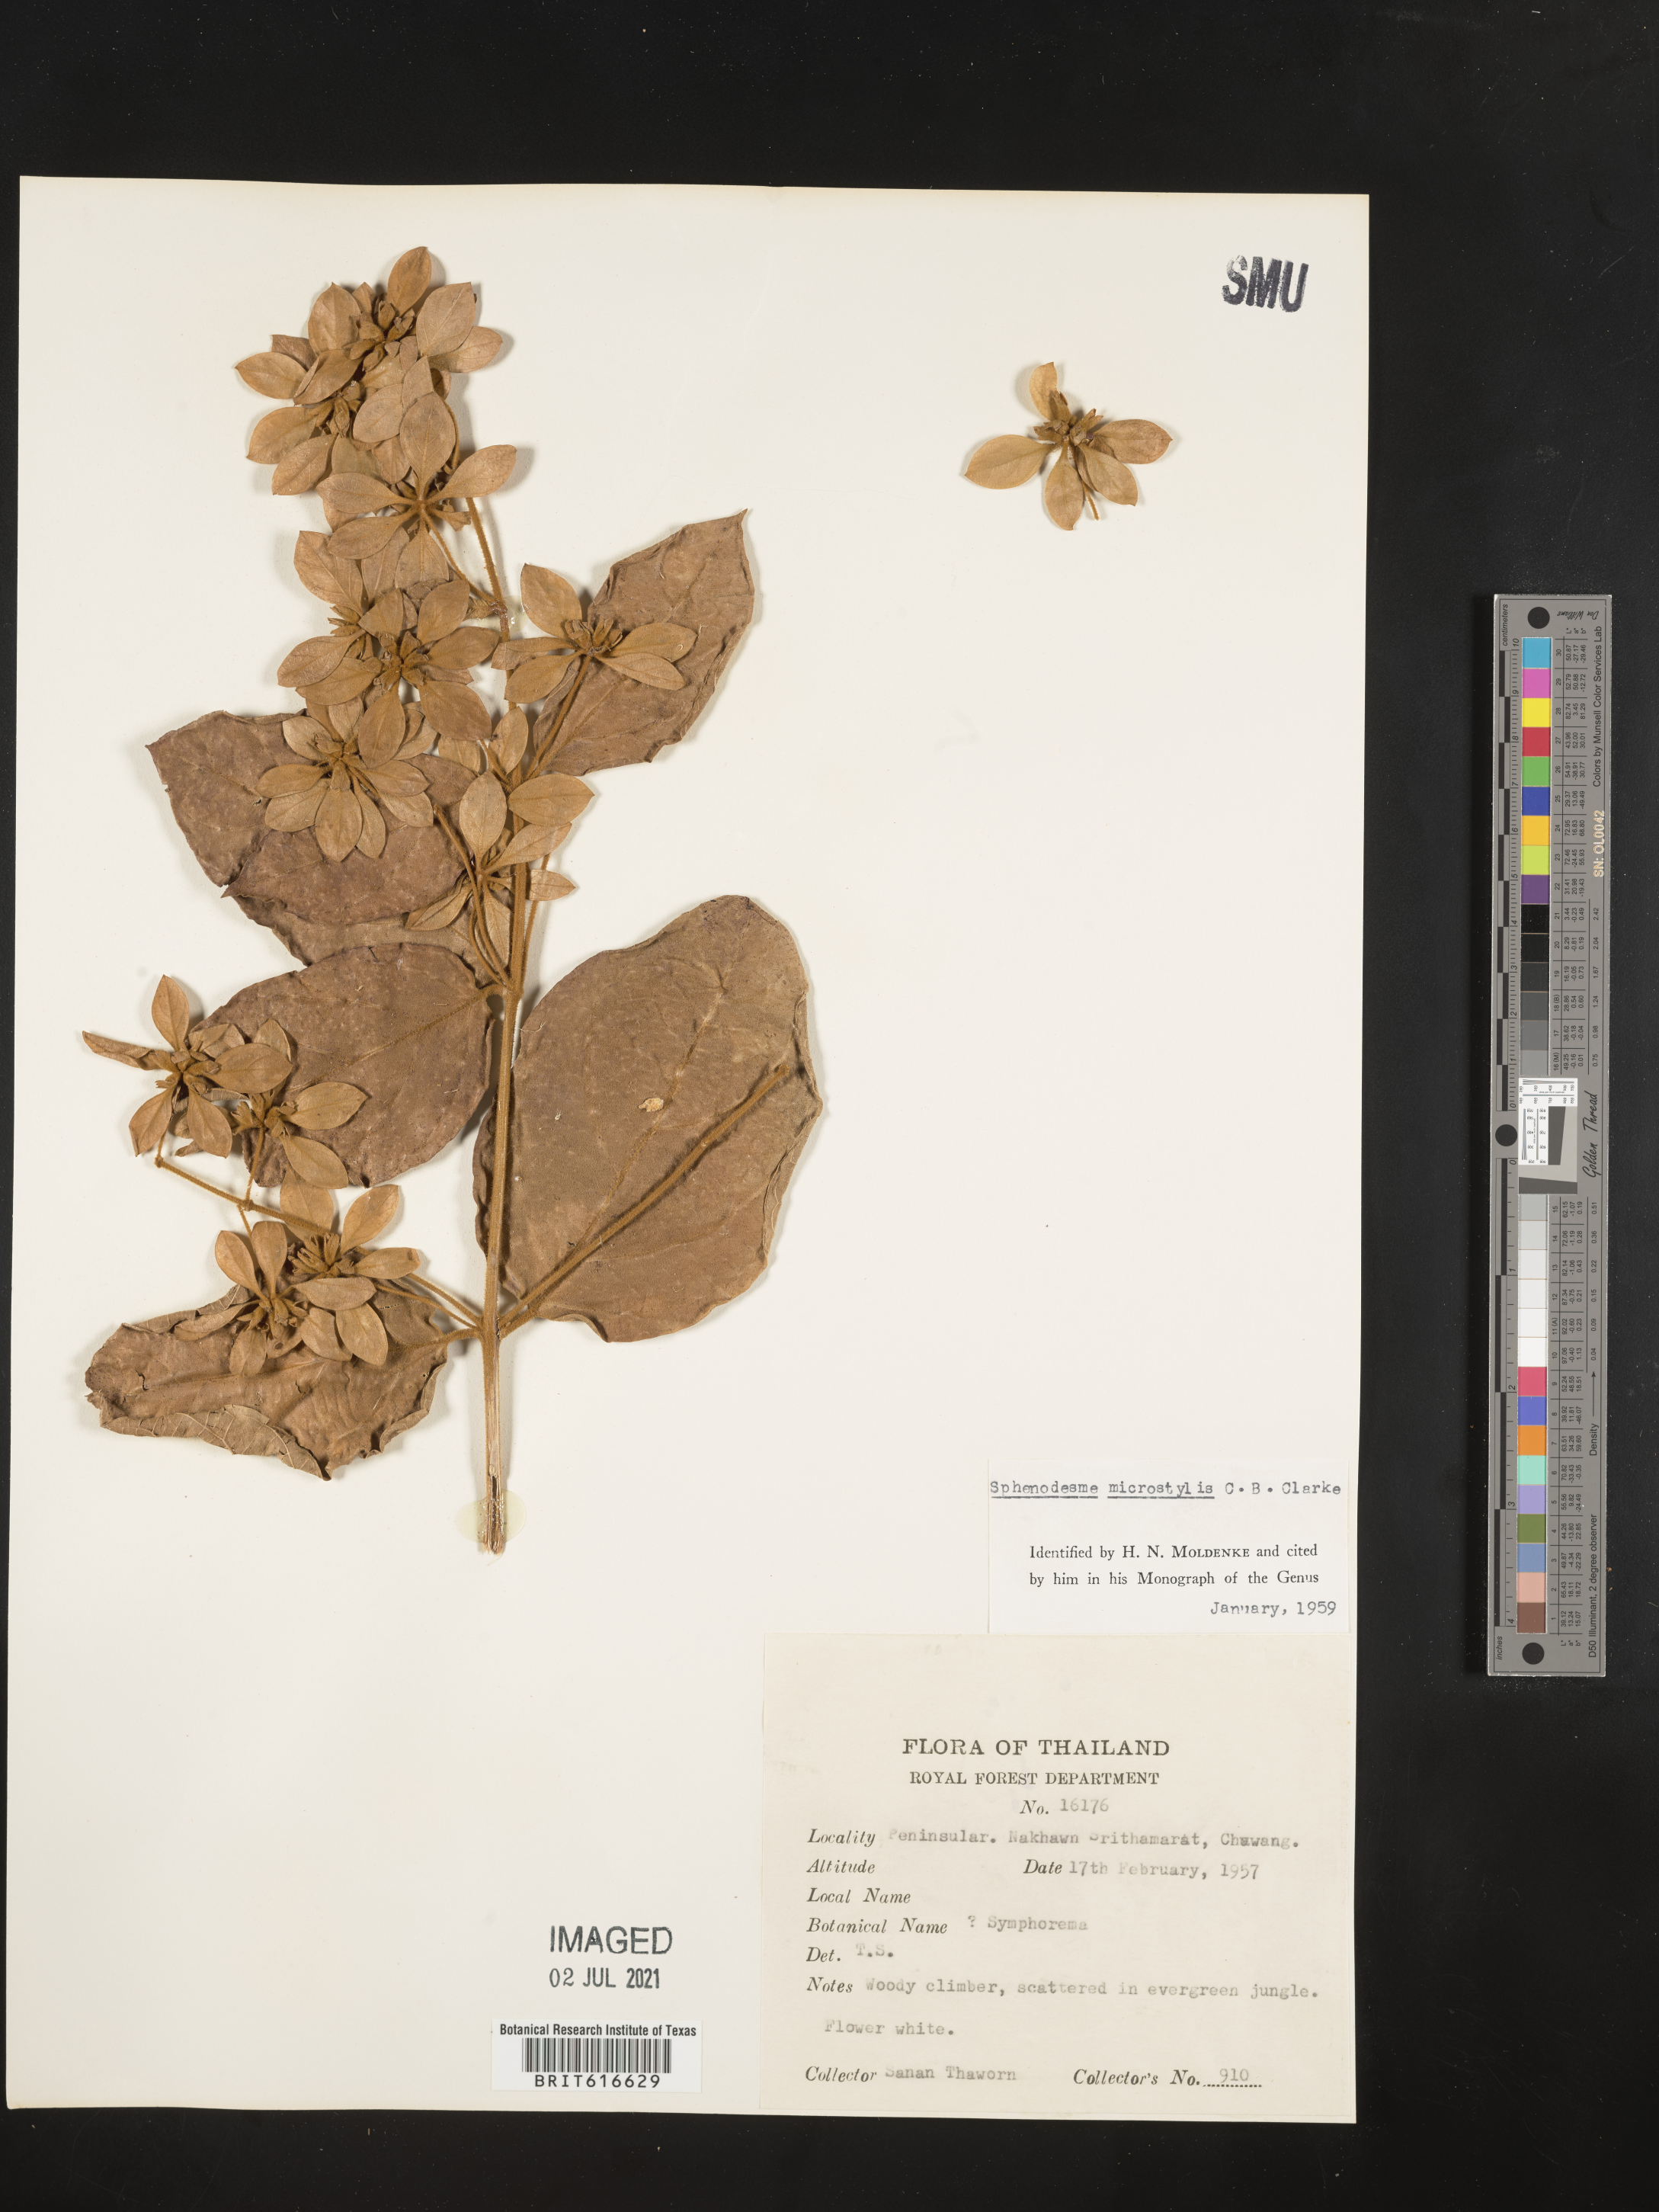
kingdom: Plantae
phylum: Tracheophyta
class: Magnoliopsida
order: Lamiales
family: Lamiaceae
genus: Sphenodesme
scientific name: Sphenodesme ferruginea
